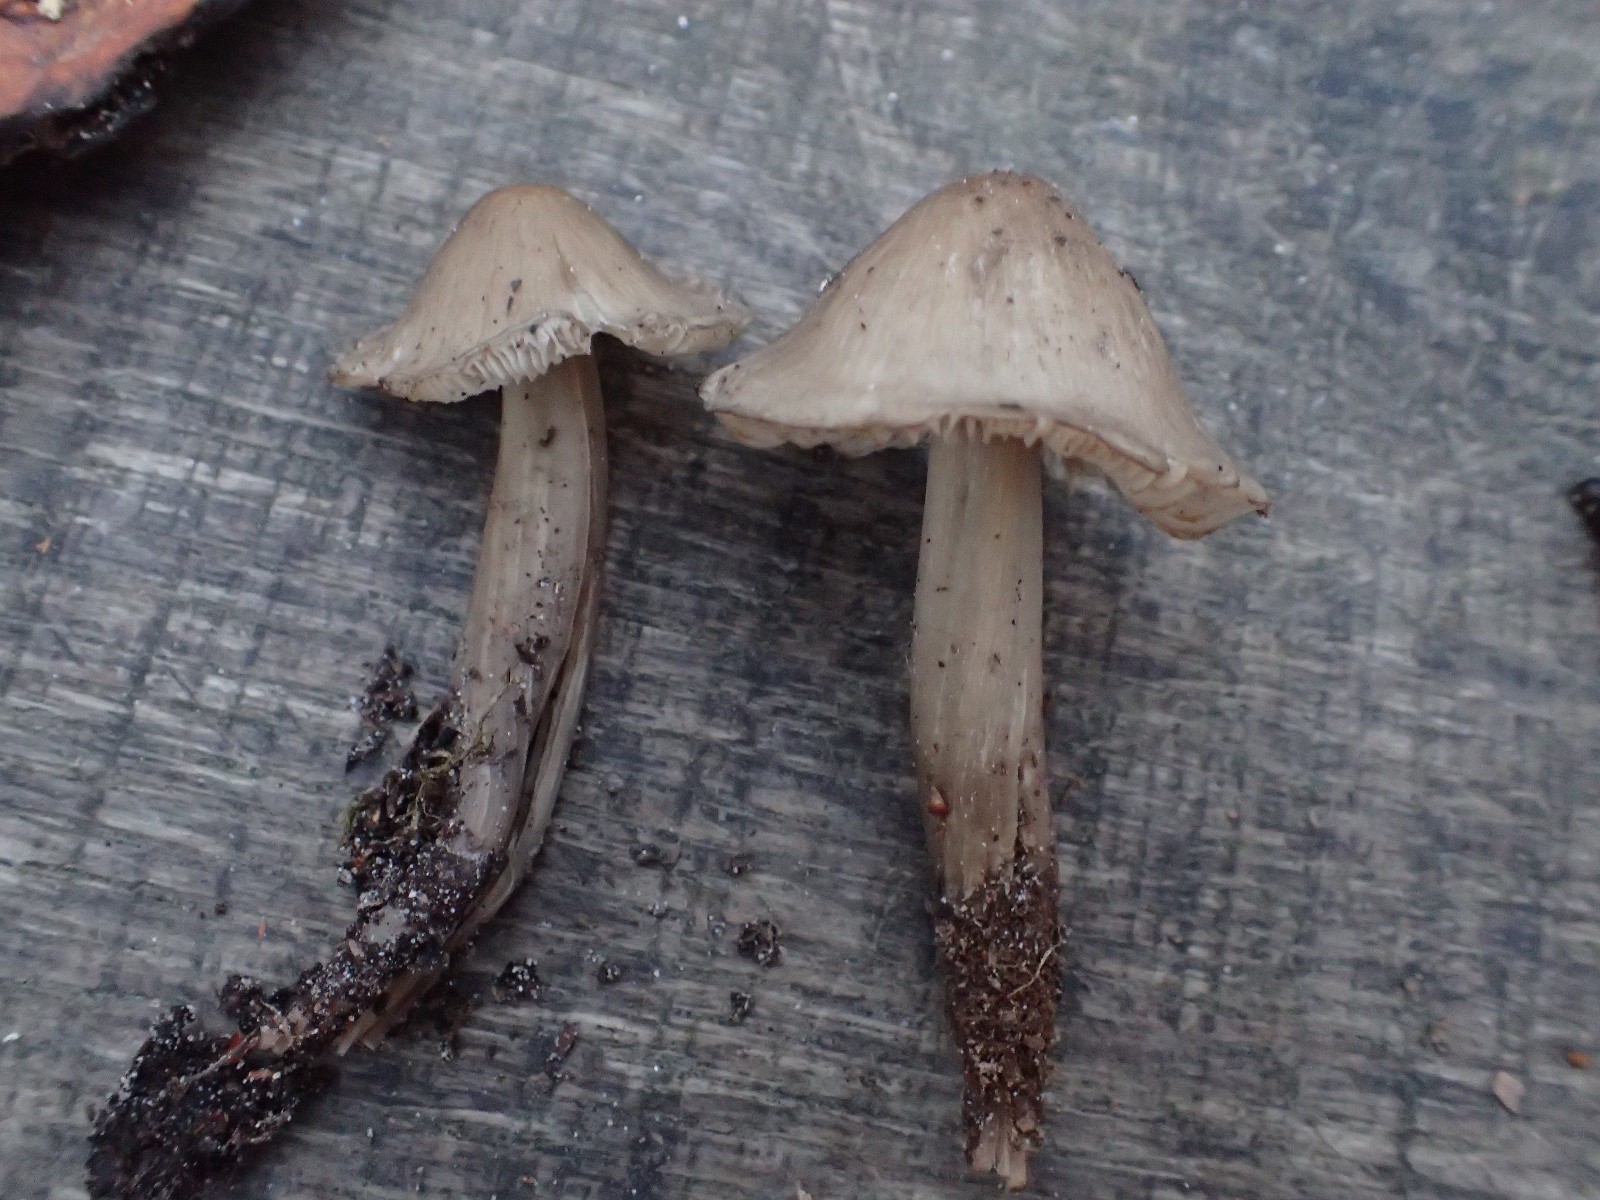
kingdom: Fungi
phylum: Basidiomycota
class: Agaricomycetes
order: Agaricales
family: Mycenaceae
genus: Mycena
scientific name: Mycena galericulata
